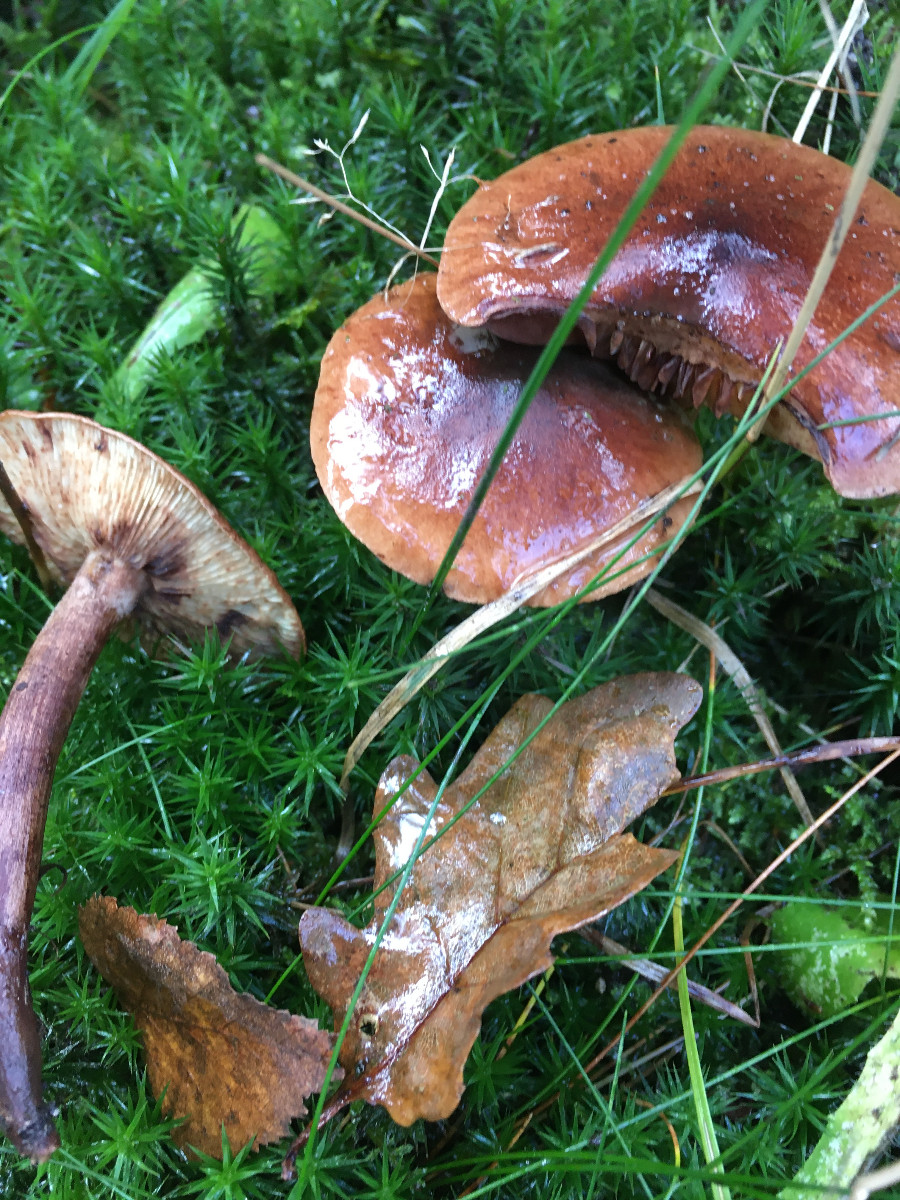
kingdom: Fungi
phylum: Basidiomycota
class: Agaricomycetes
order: Agaricales
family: Tricholomataceae
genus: Tricholoma
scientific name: Tricholoma fulvum
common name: birke-ridderhat
